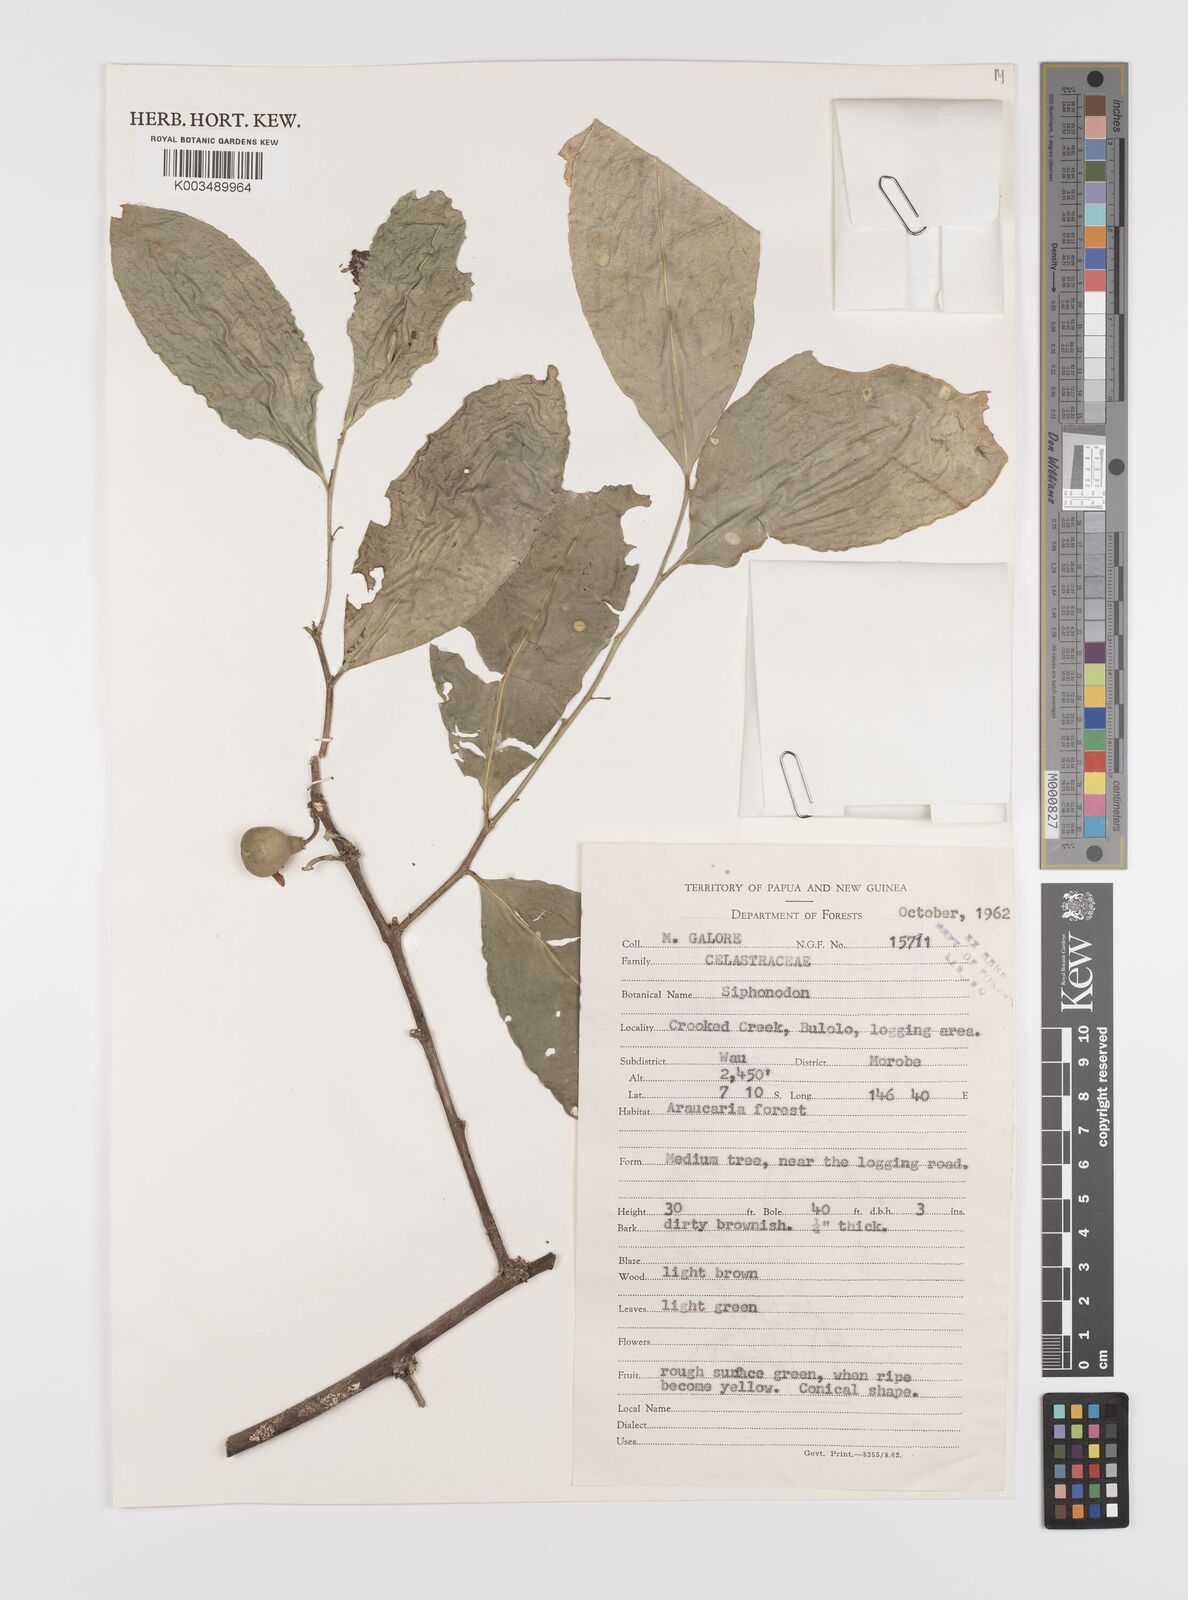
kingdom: Plantae
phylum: Tracheophyta
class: Magnoliopsida
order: Celastrales
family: Celastraceae
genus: Siphonodon
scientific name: Siphonodon
